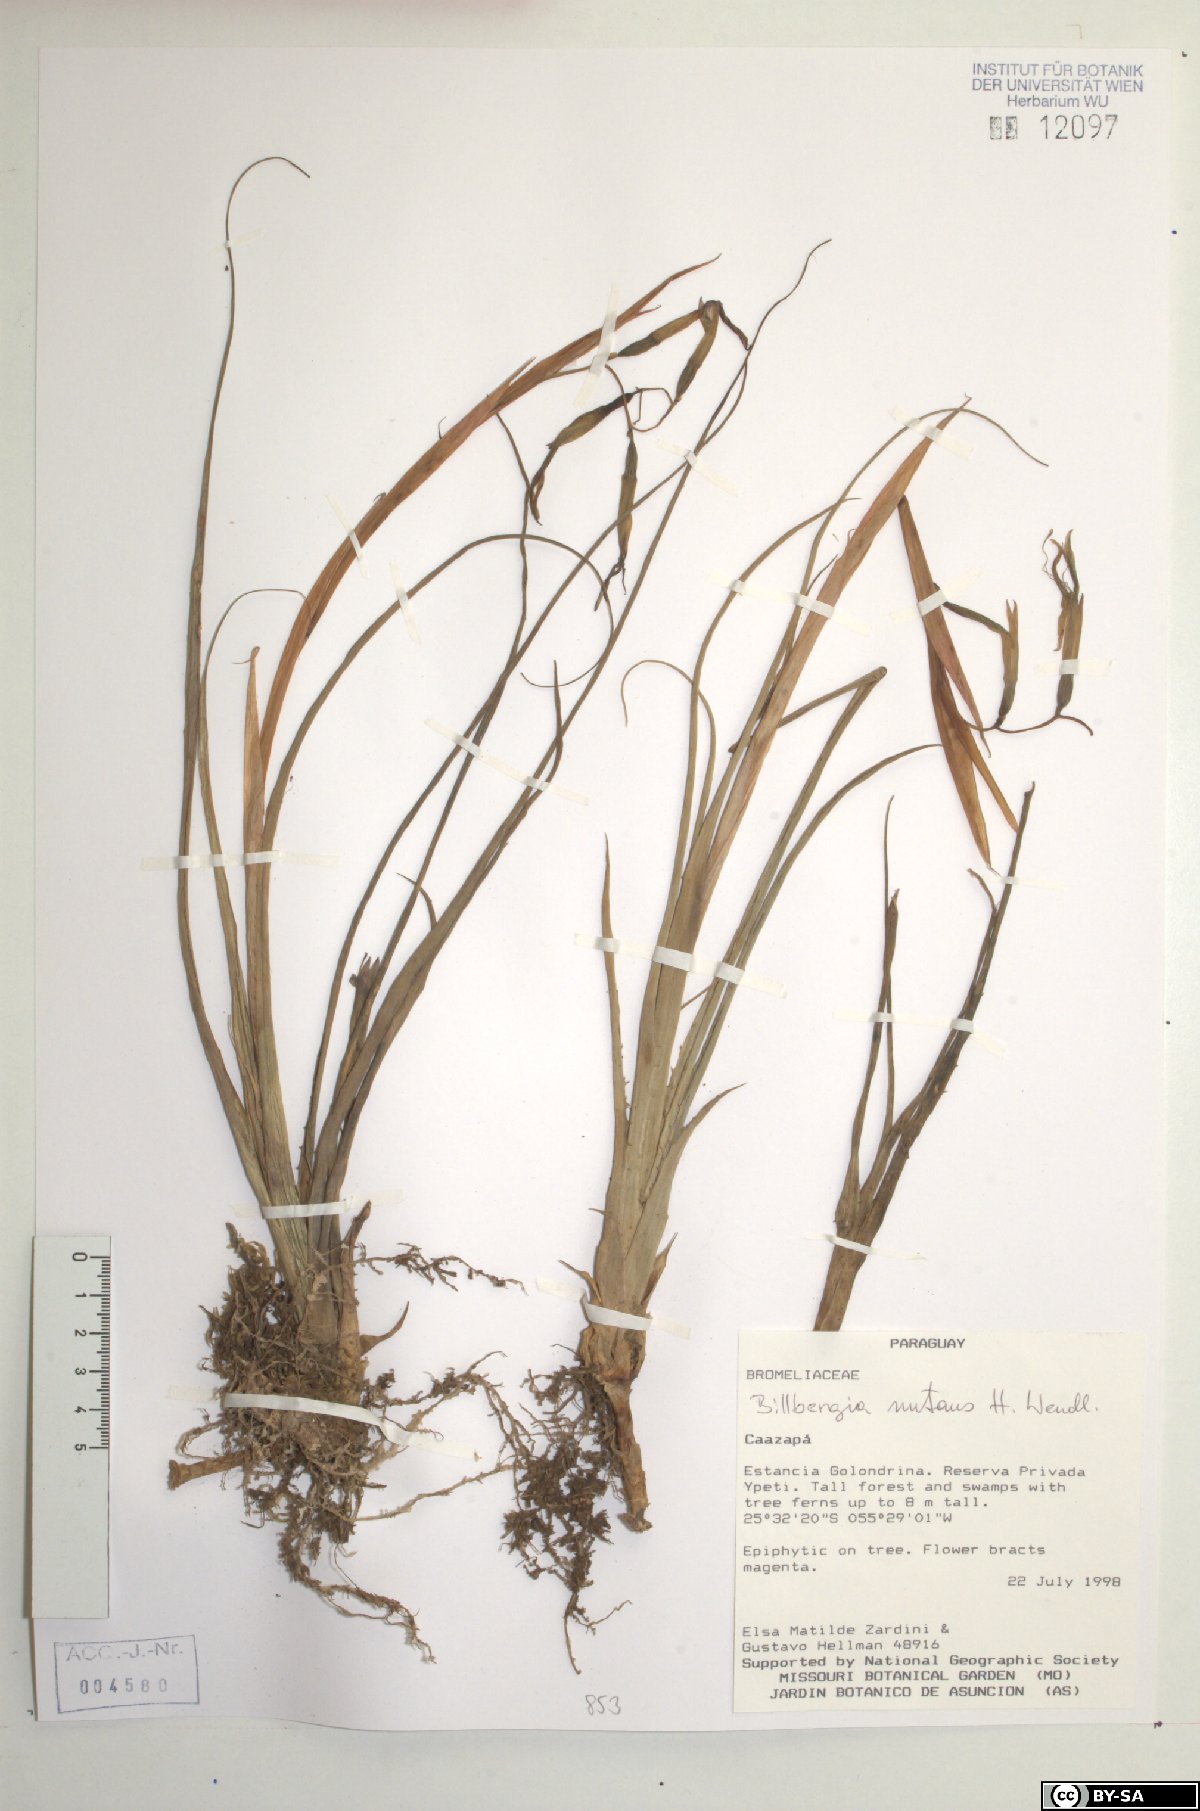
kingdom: Plantae
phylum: Tracheophyta
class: Liliopsida
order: Poales
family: Bromeliaceae
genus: Billbergia
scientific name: Billbergia nutans
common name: Friendship-plant
